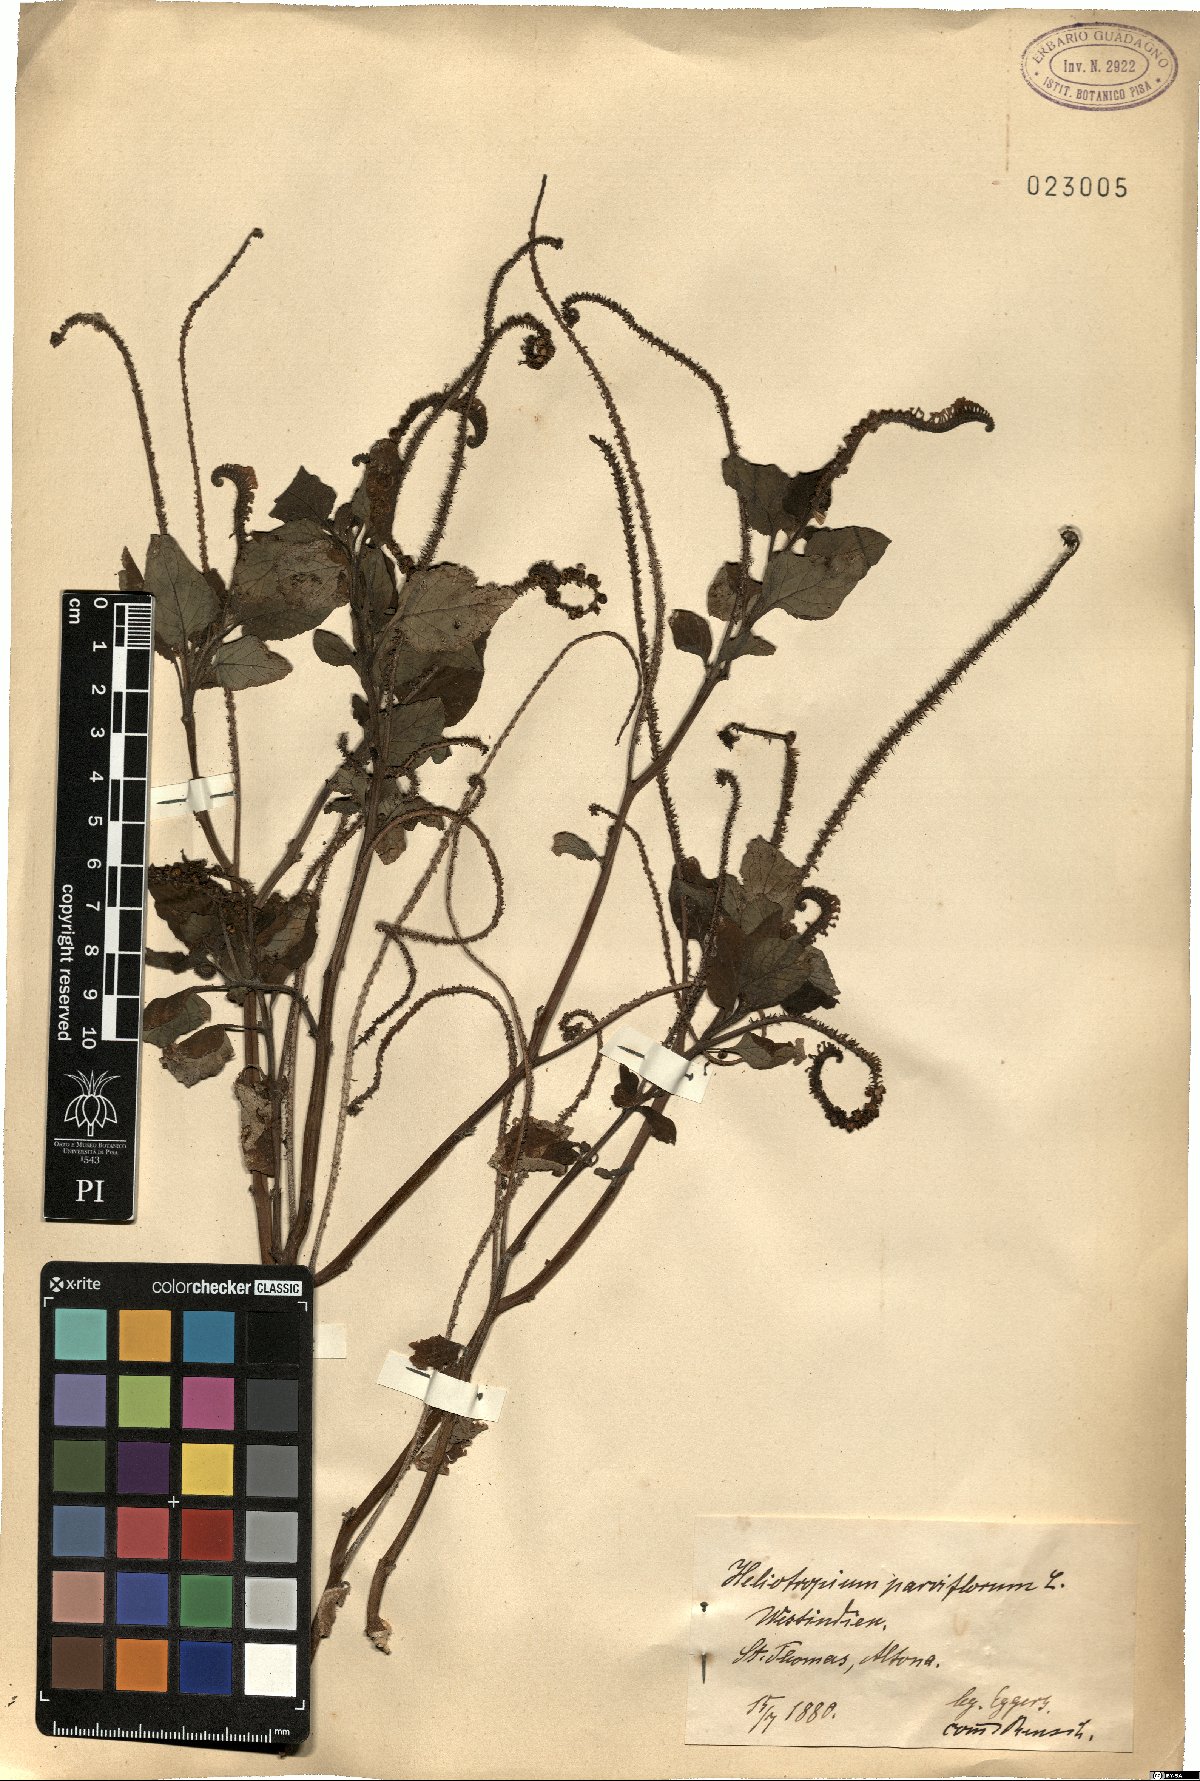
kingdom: Plantae
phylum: Tracheophyta
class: Magnoliopsida
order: Boraginales
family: Heliotropiaceae
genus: Heliotropium
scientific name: Heliotropium angiospermum
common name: Eye bright
